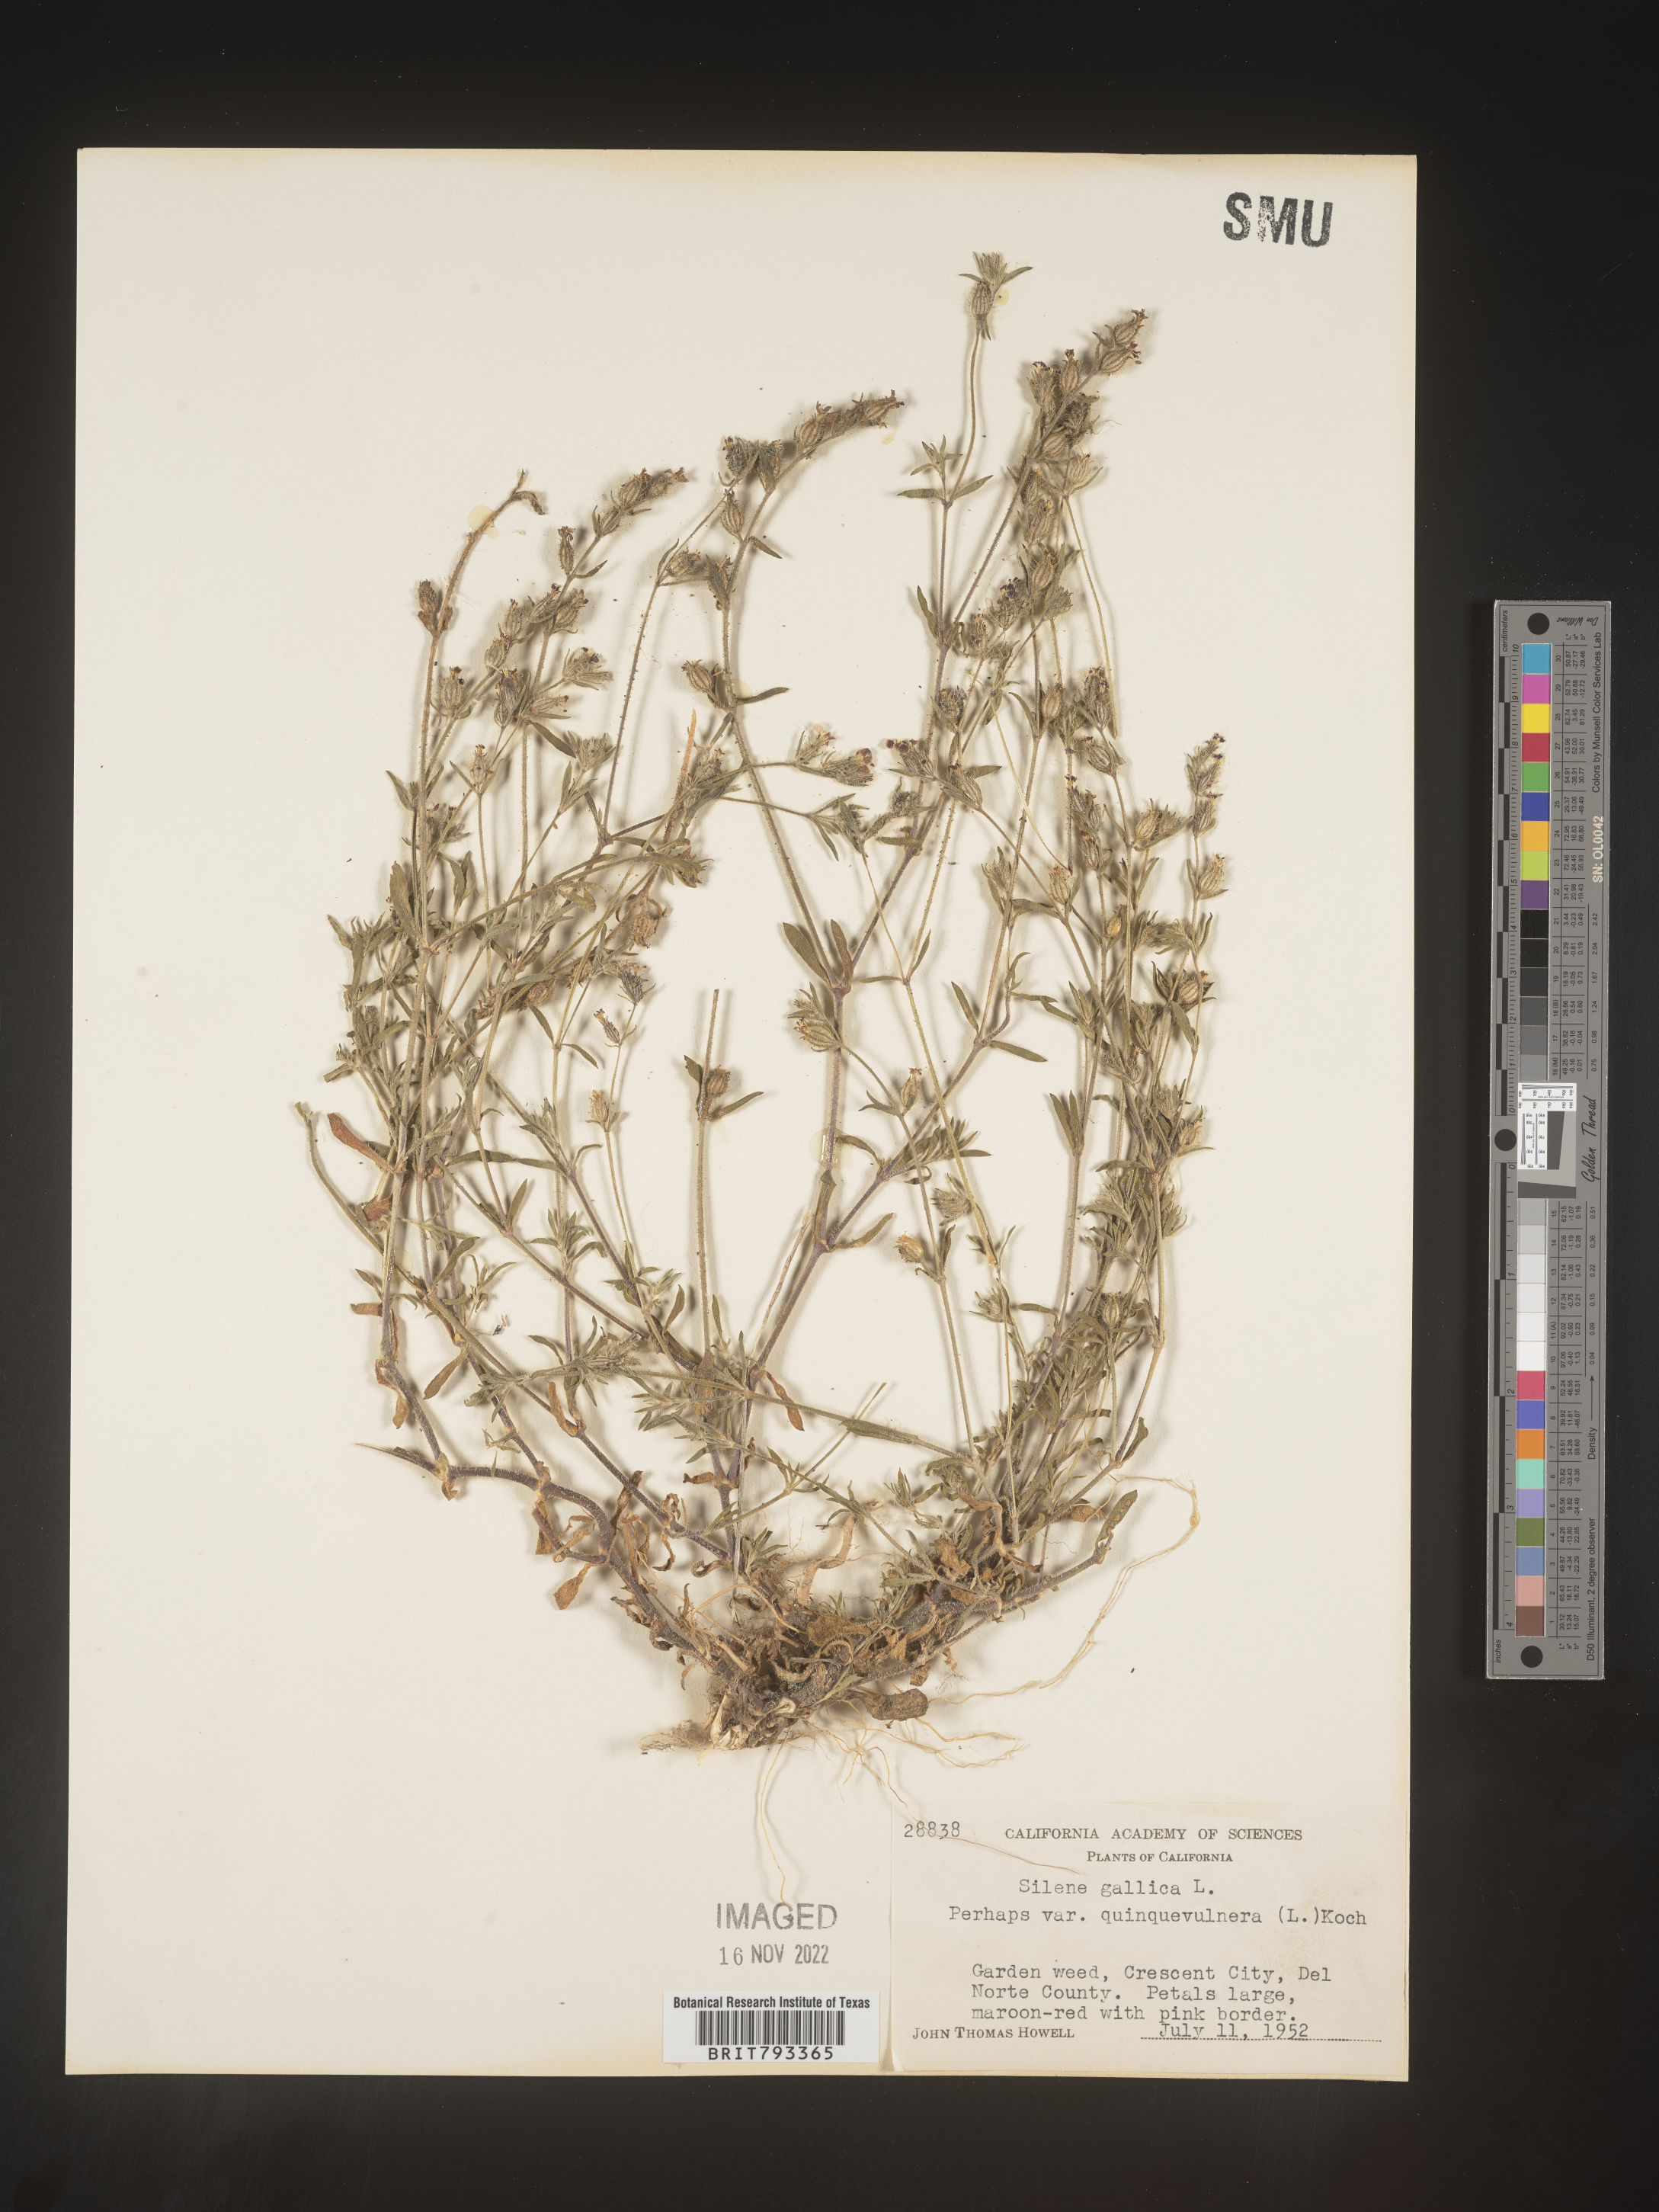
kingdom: Plantae
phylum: Tracheophyta
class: Magnoliopsida
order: Caryophyllales
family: Caryophyllaceae
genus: Silene
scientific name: Silene gallica
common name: Small-flowered catchfly
